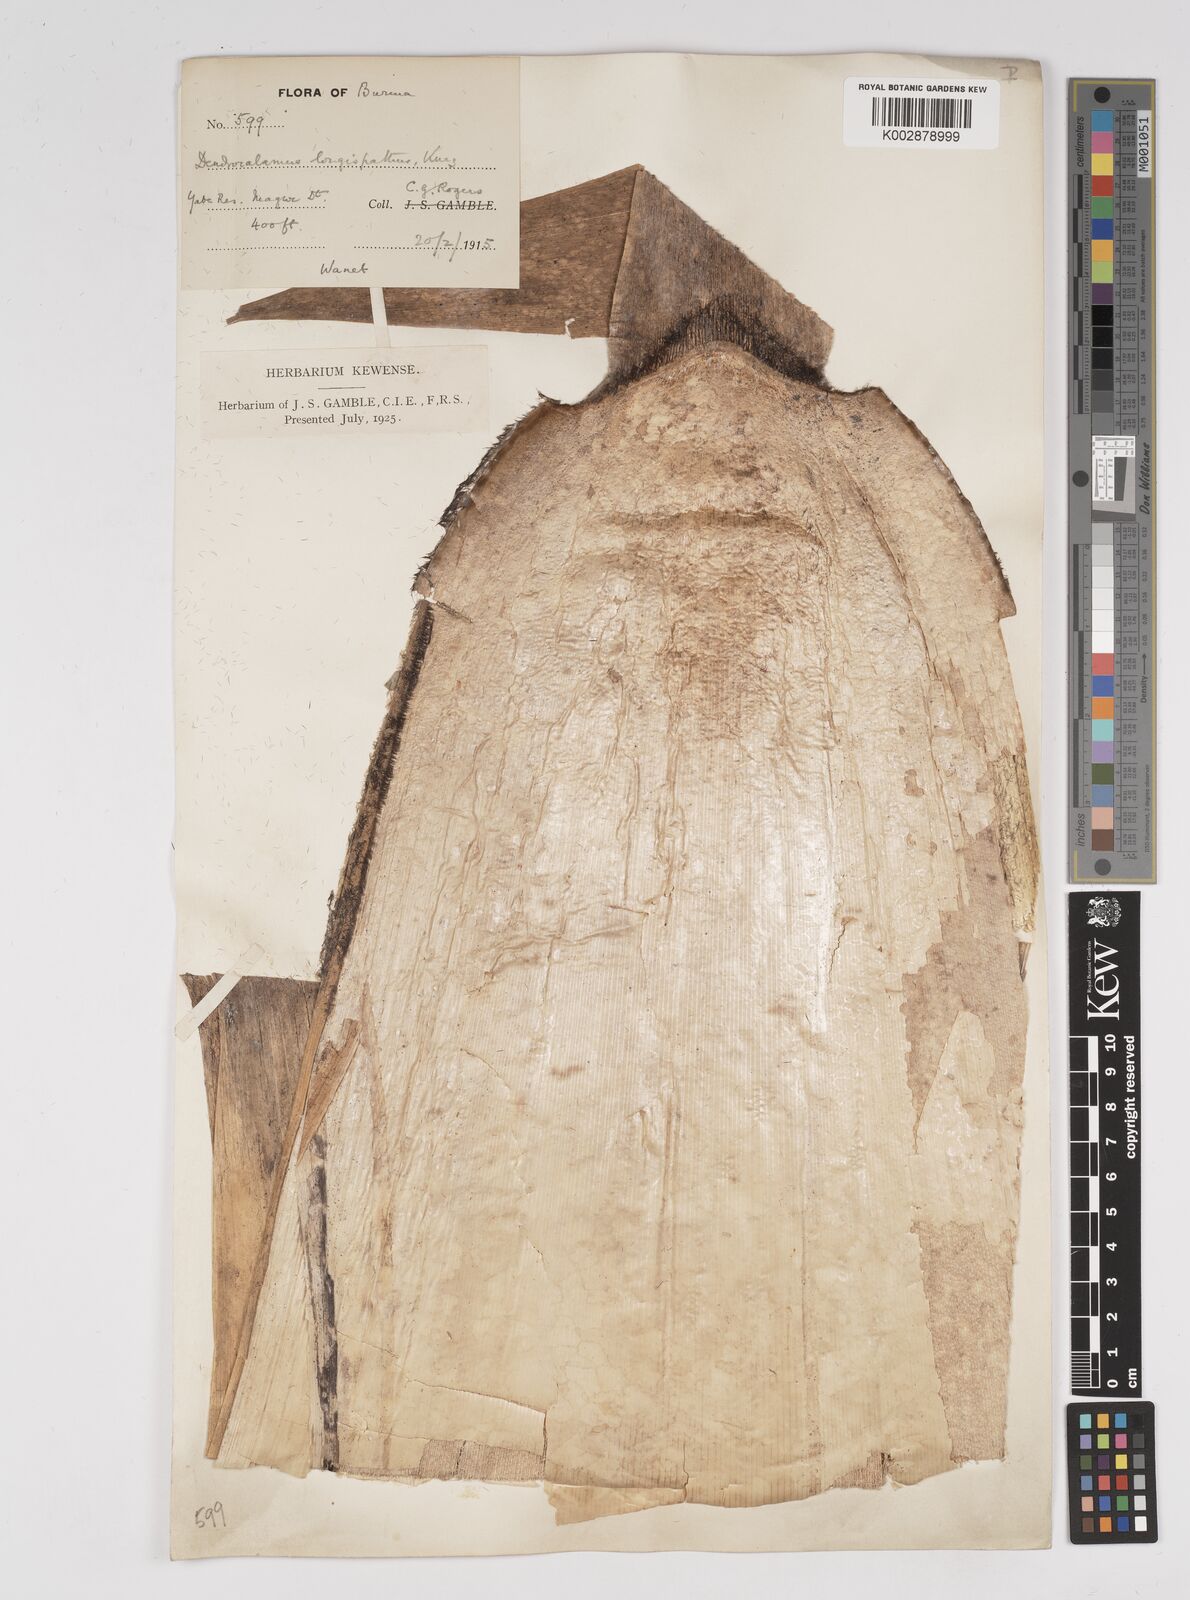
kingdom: Plantae
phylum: Tracheophyta
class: Liliopsida
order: Poales
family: Poaceae
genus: Dendrocalamus
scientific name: Dendrocalamus longispathus
